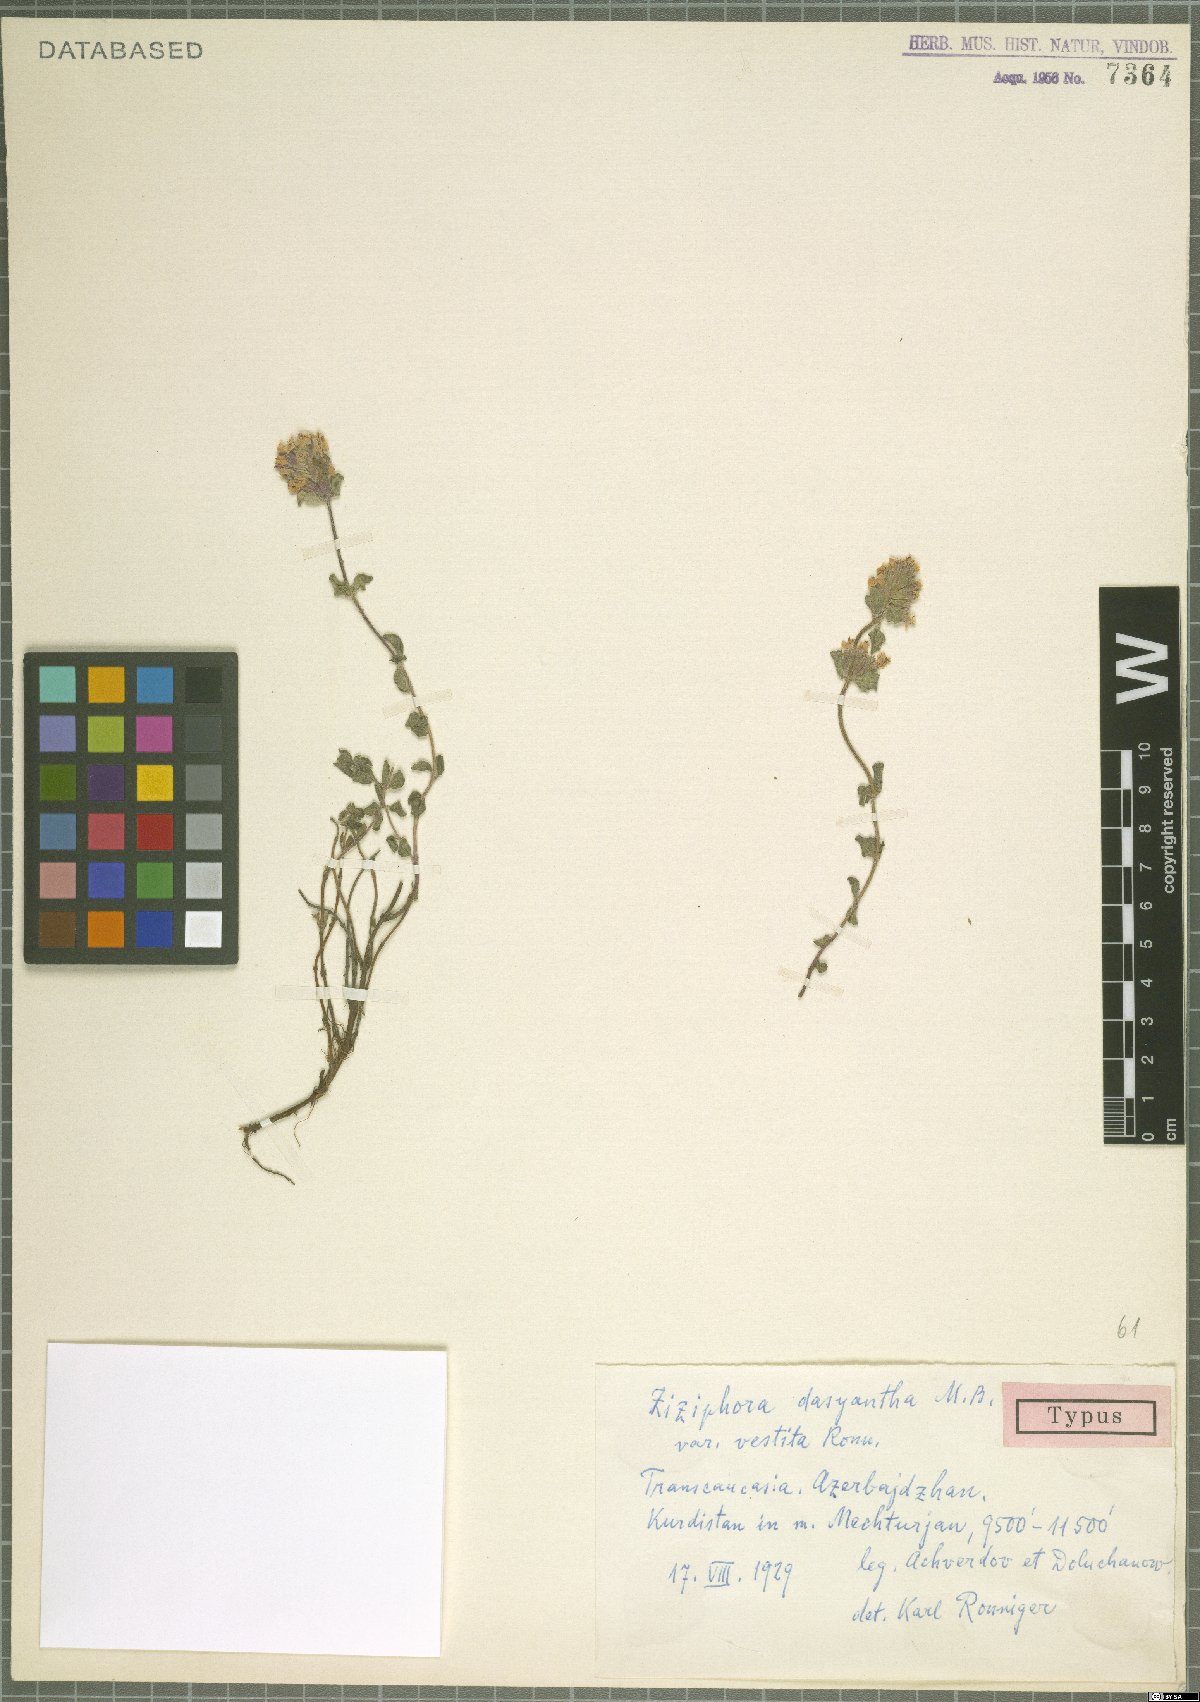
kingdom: Plantae
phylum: Tracheophyta
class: Magnoliopsida
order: Lamiales
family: Lamiaceae
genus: Ziziphora
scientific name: Ziziphora clinopodioides
